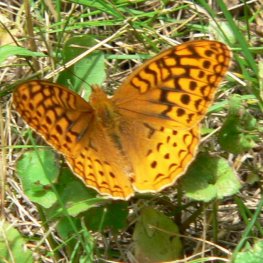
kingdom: Animalia
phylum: Arthropoda
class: Insecta
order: Lepidoptera
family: Nymphalidae
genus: Speyeria
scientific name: Speyeria cybele
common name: Great Spangled Fritillary
